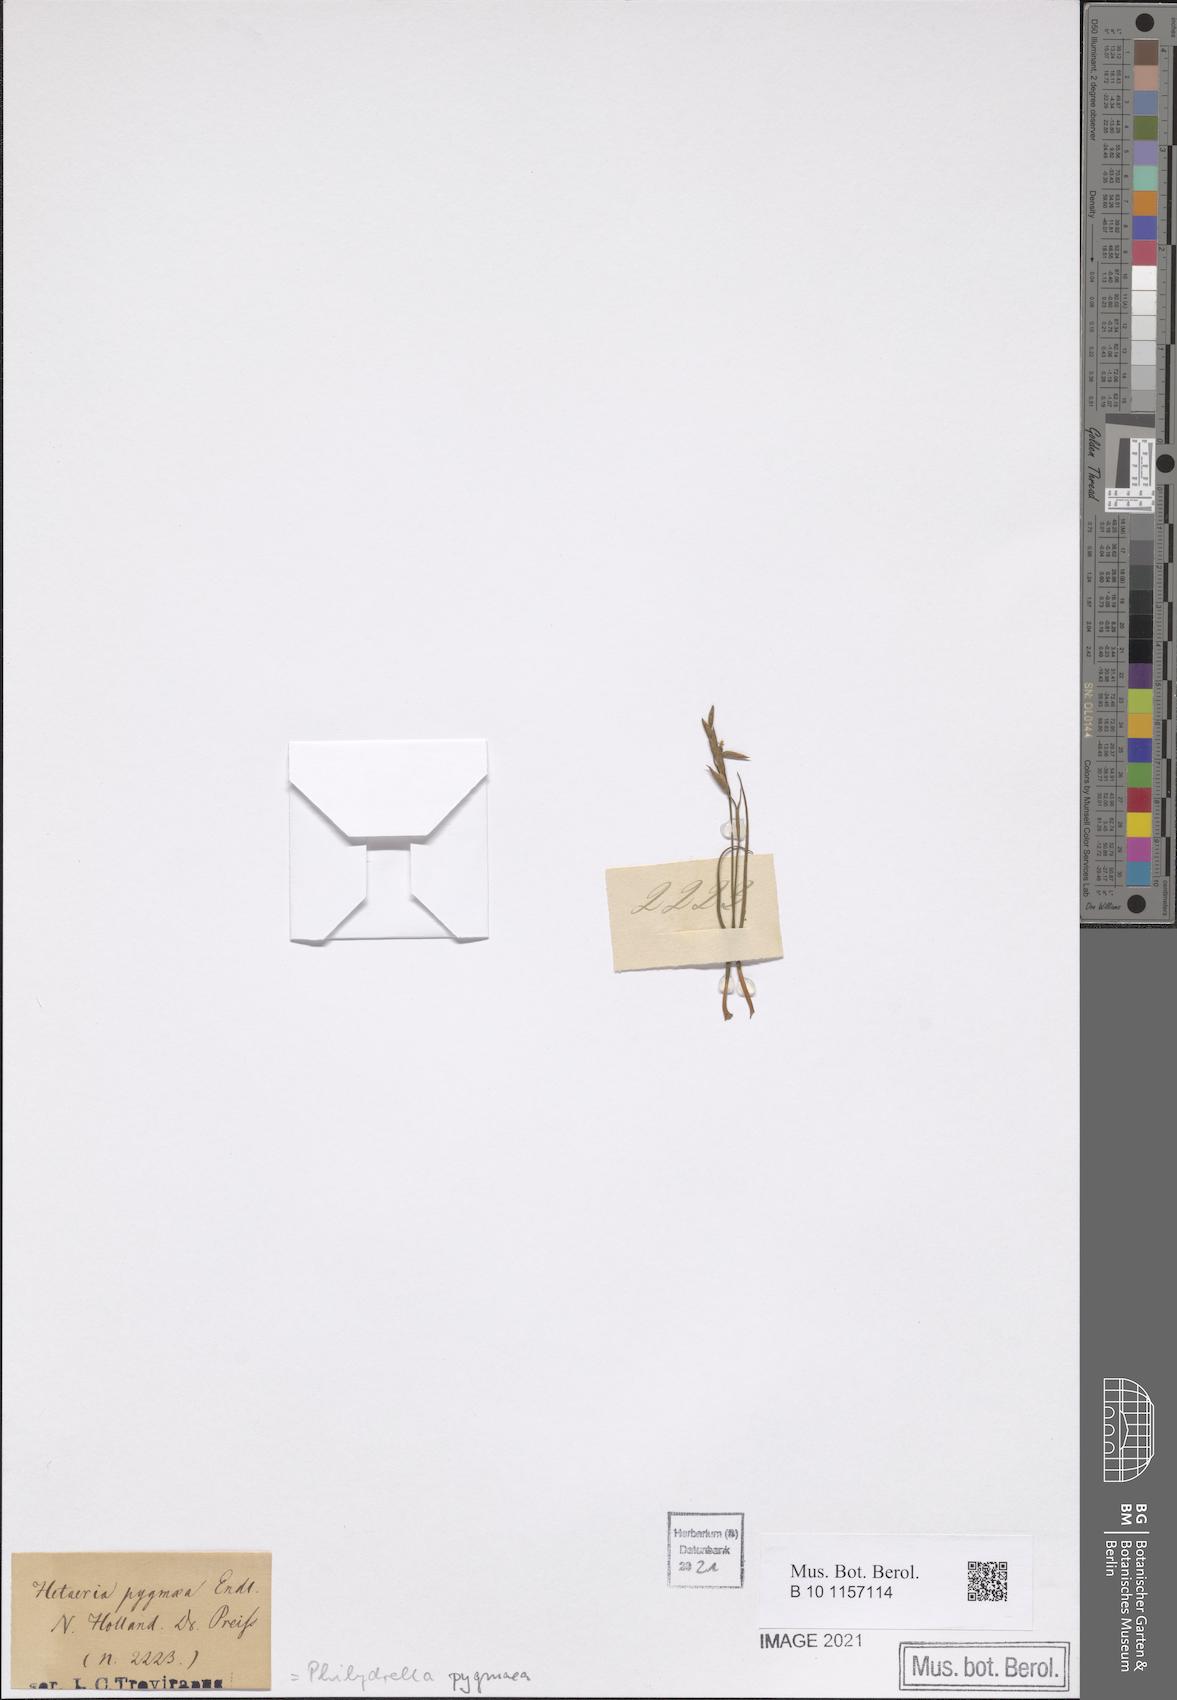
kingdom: Plantae
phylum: Tracheophyta
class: Liliopsida
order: Commelinales
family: Philydraceae
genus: Philydrella
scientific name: Philydrella pygmaea
